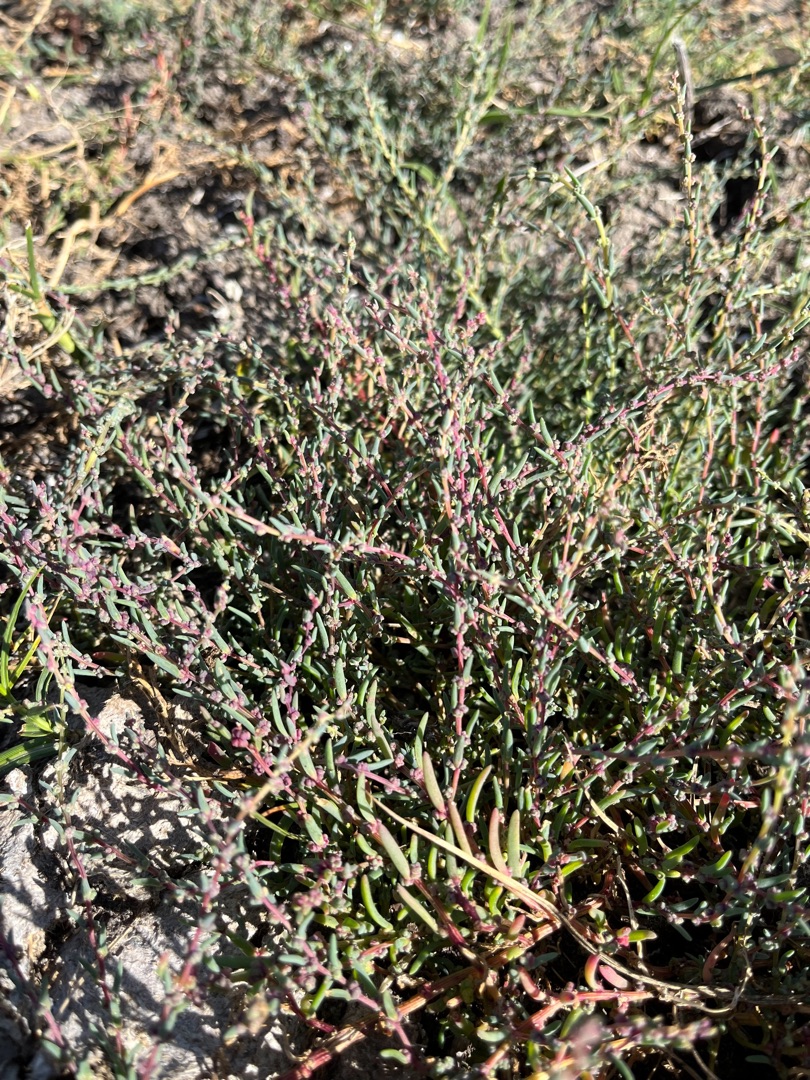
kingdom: Plantae
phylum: Tracheophyta
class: Magnoliopsida
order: Caryophyllales
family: Amaranthaceae
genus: Suaeda
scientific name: Suaeda maritima
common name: Strandgåsefod
